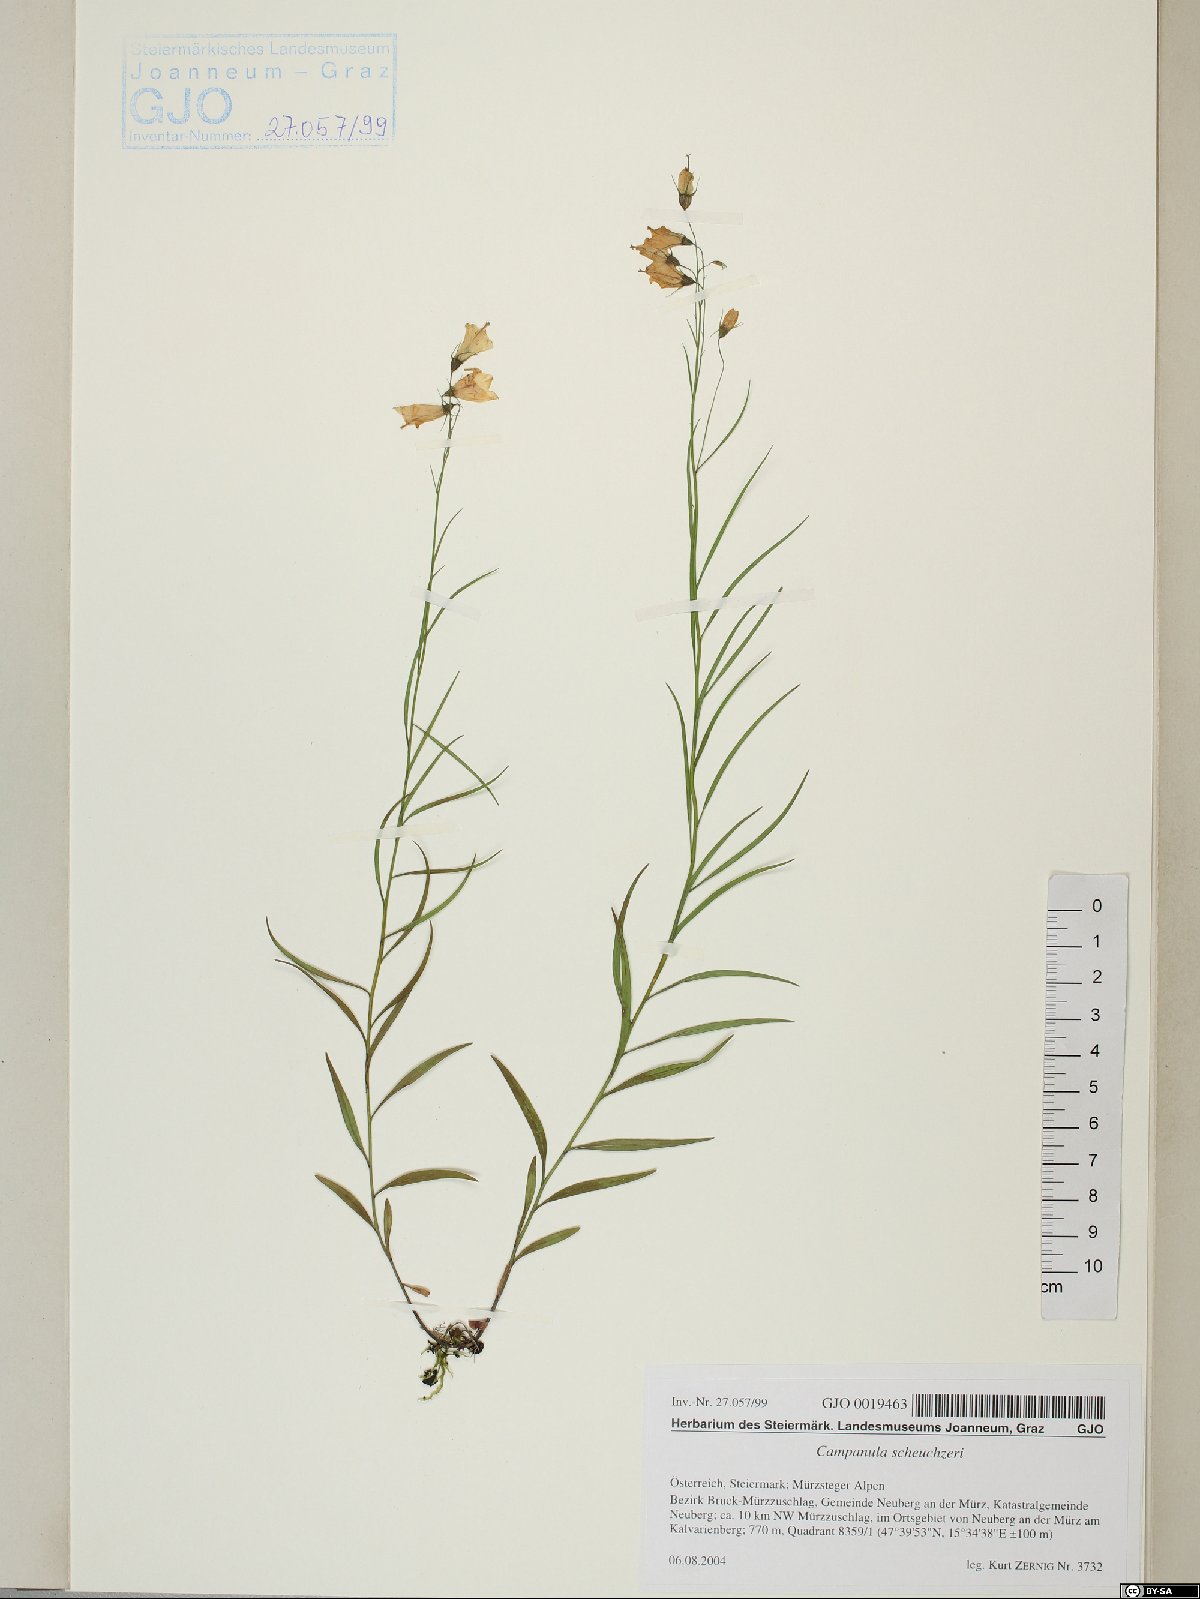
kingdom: Plantae
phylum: Tracheophyta
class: Magnoliopsida
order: Asterales
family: Campanulaceae
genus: Campanula
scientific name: Campanula scheuchzeri
